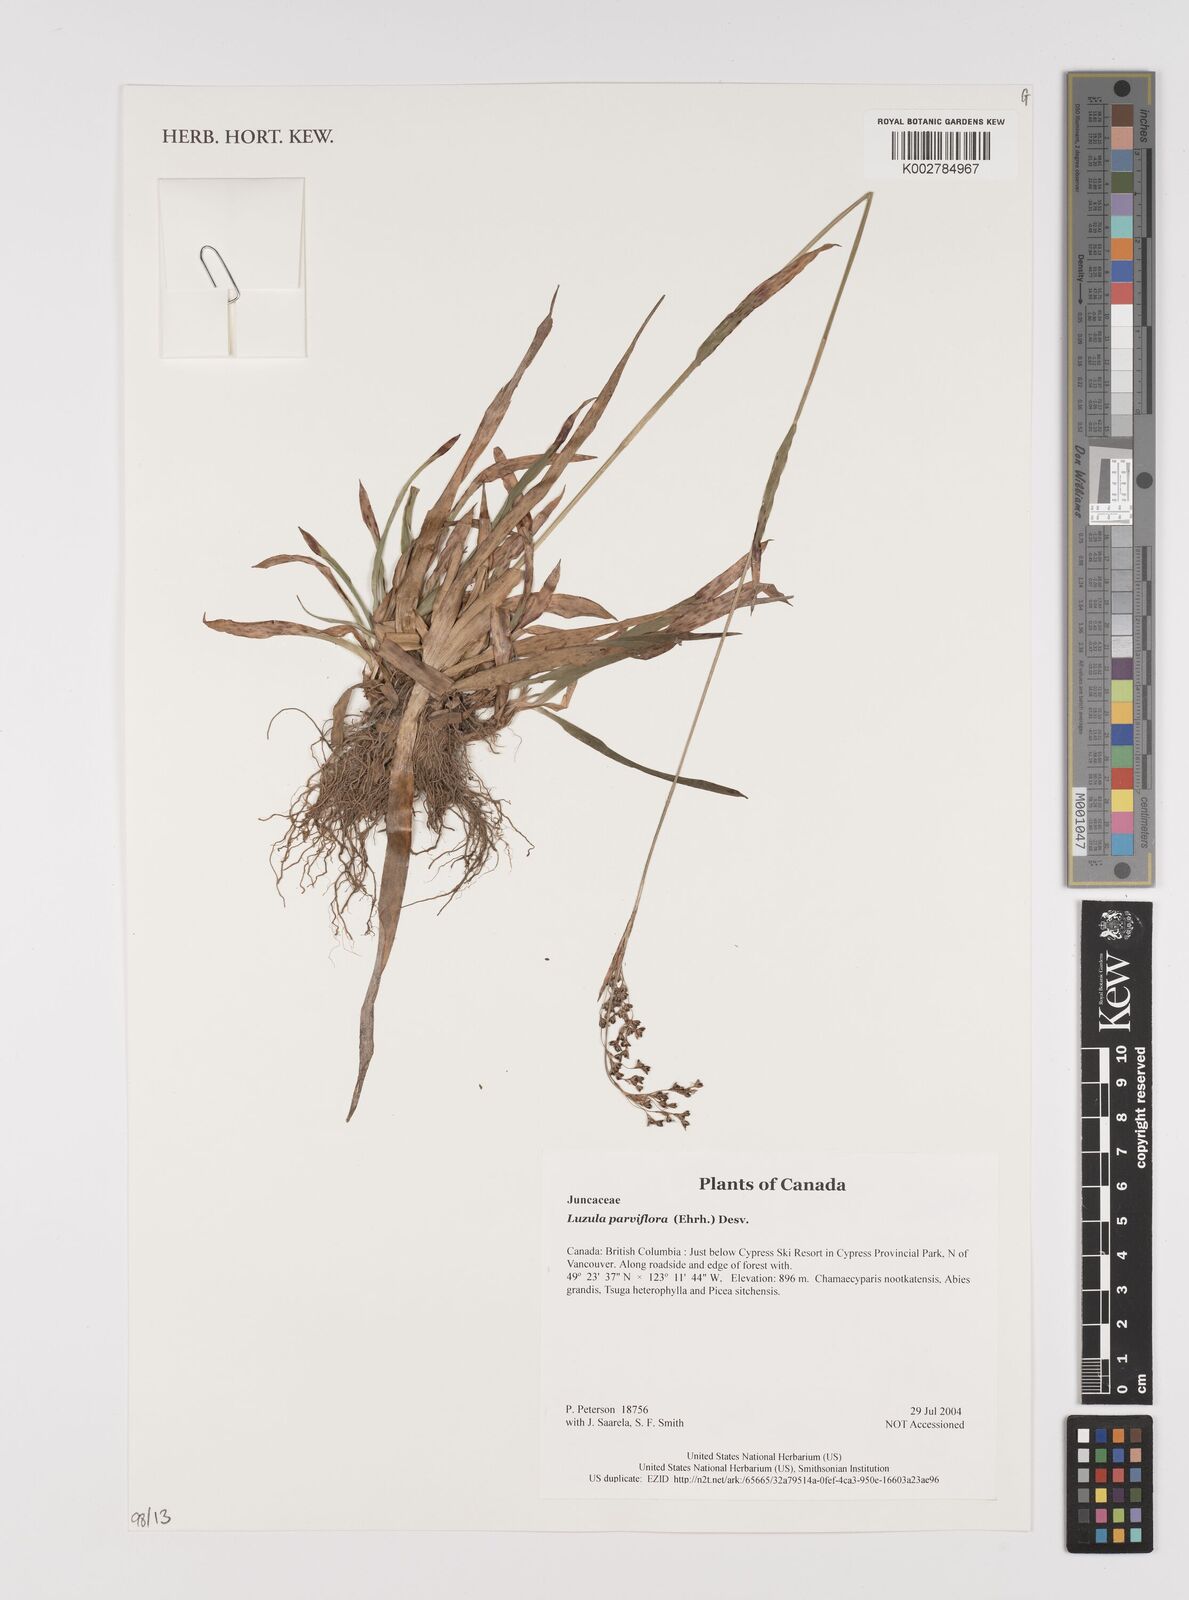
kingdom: Plantae
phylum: Tracheophyta
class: Liliopsida
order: Poales
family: Juncaceae
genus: Luzula
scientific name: Luzula parviflora
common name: Millet woodrush
